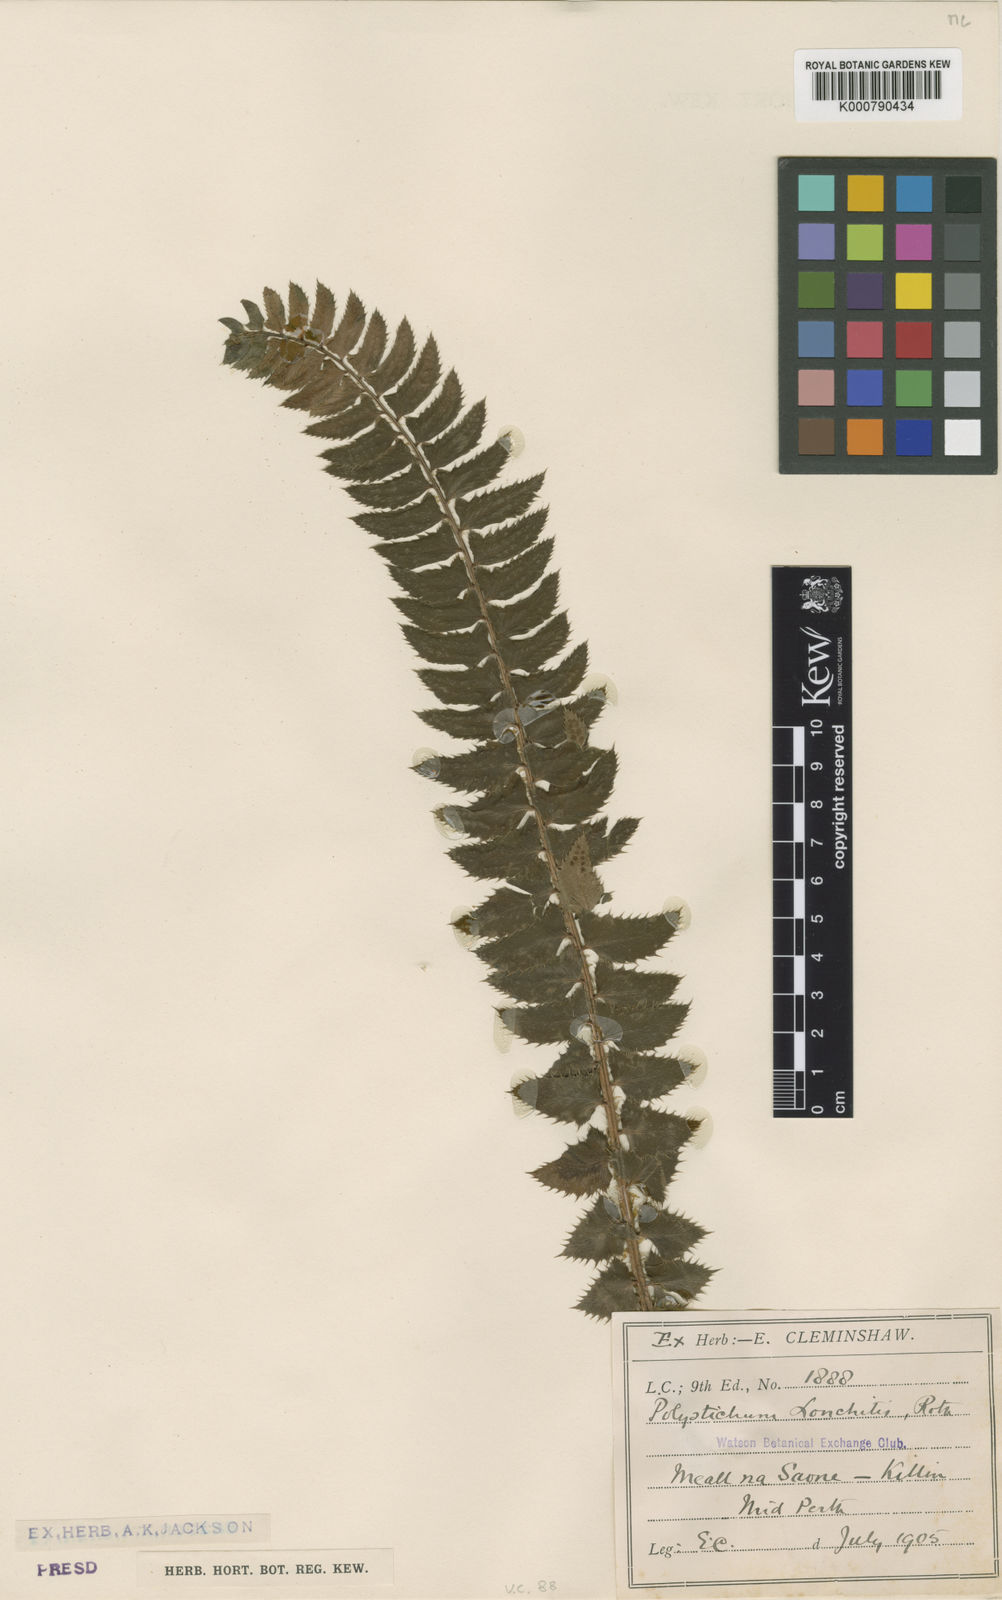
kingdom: Plantae
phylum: Tracheophyta
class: Polypodiopsida
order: Polypodiales
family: Dryopteridaceae
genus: Polystichum
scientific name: Polystichum
